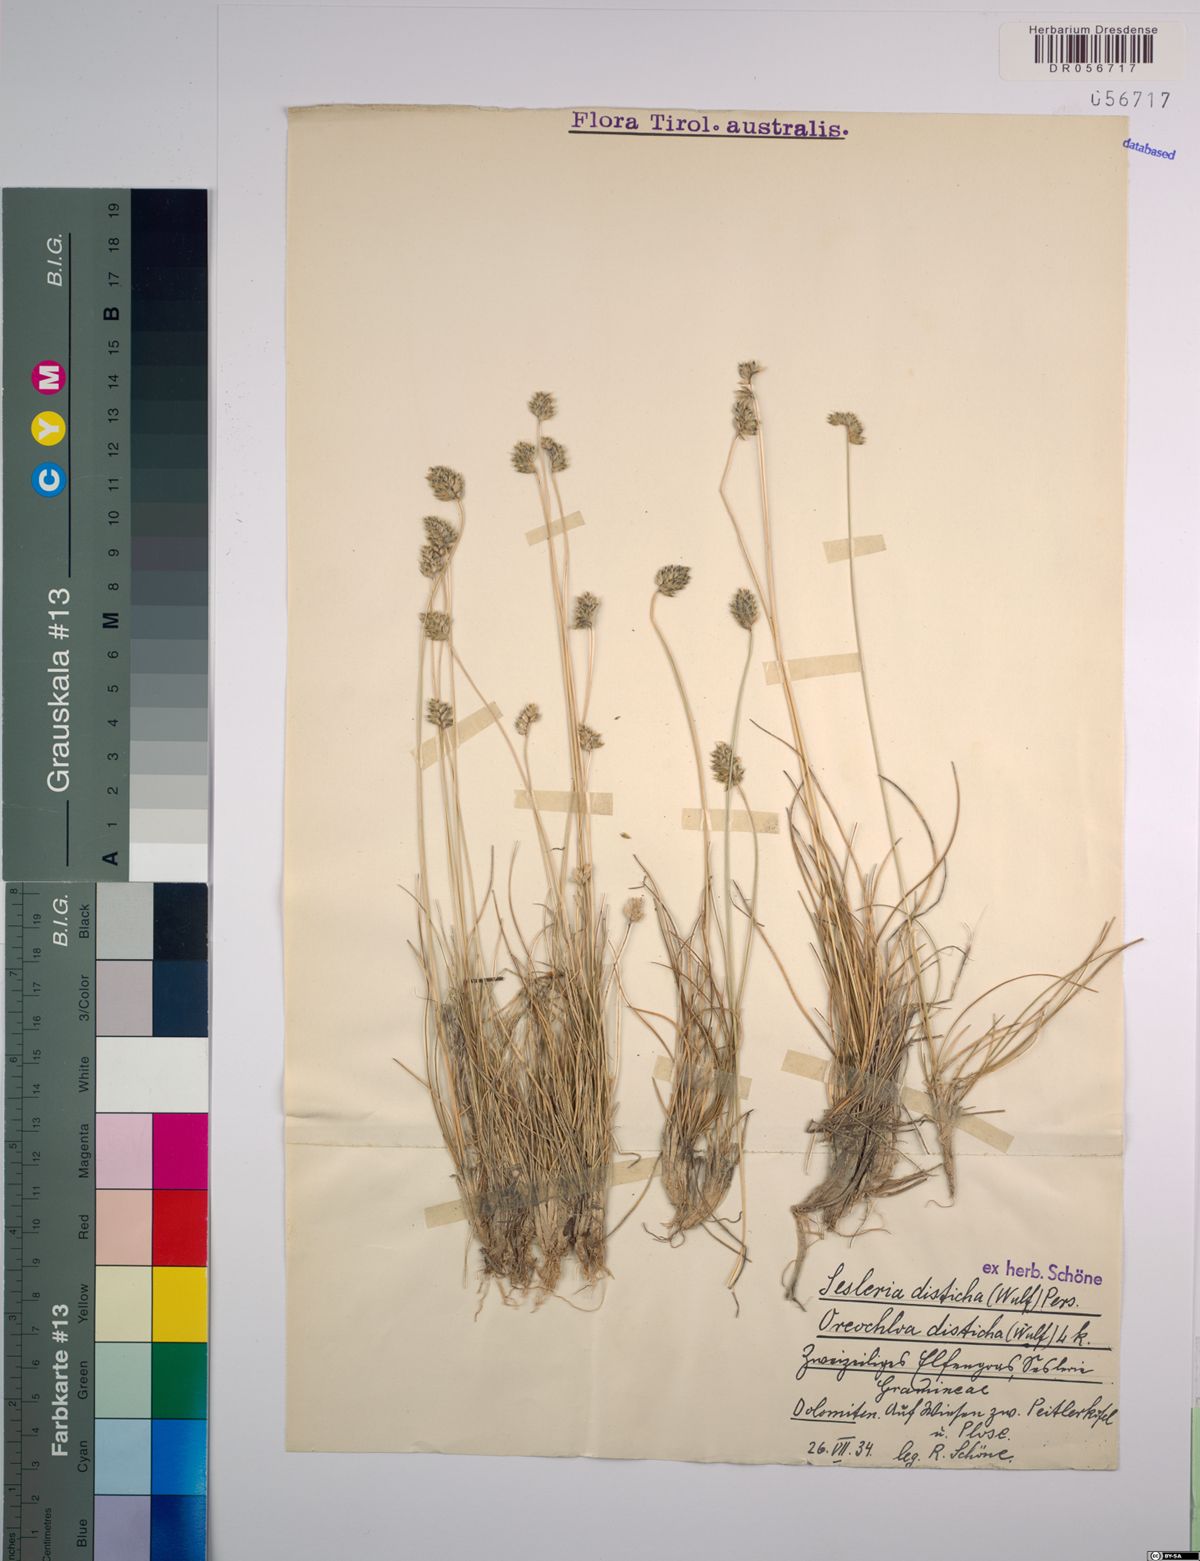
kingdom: Plantae
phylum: Tracheophyta
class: Liliopsida
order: Poales
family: Poaceae
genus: Oreochloa
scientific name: Oreochloa disticha
